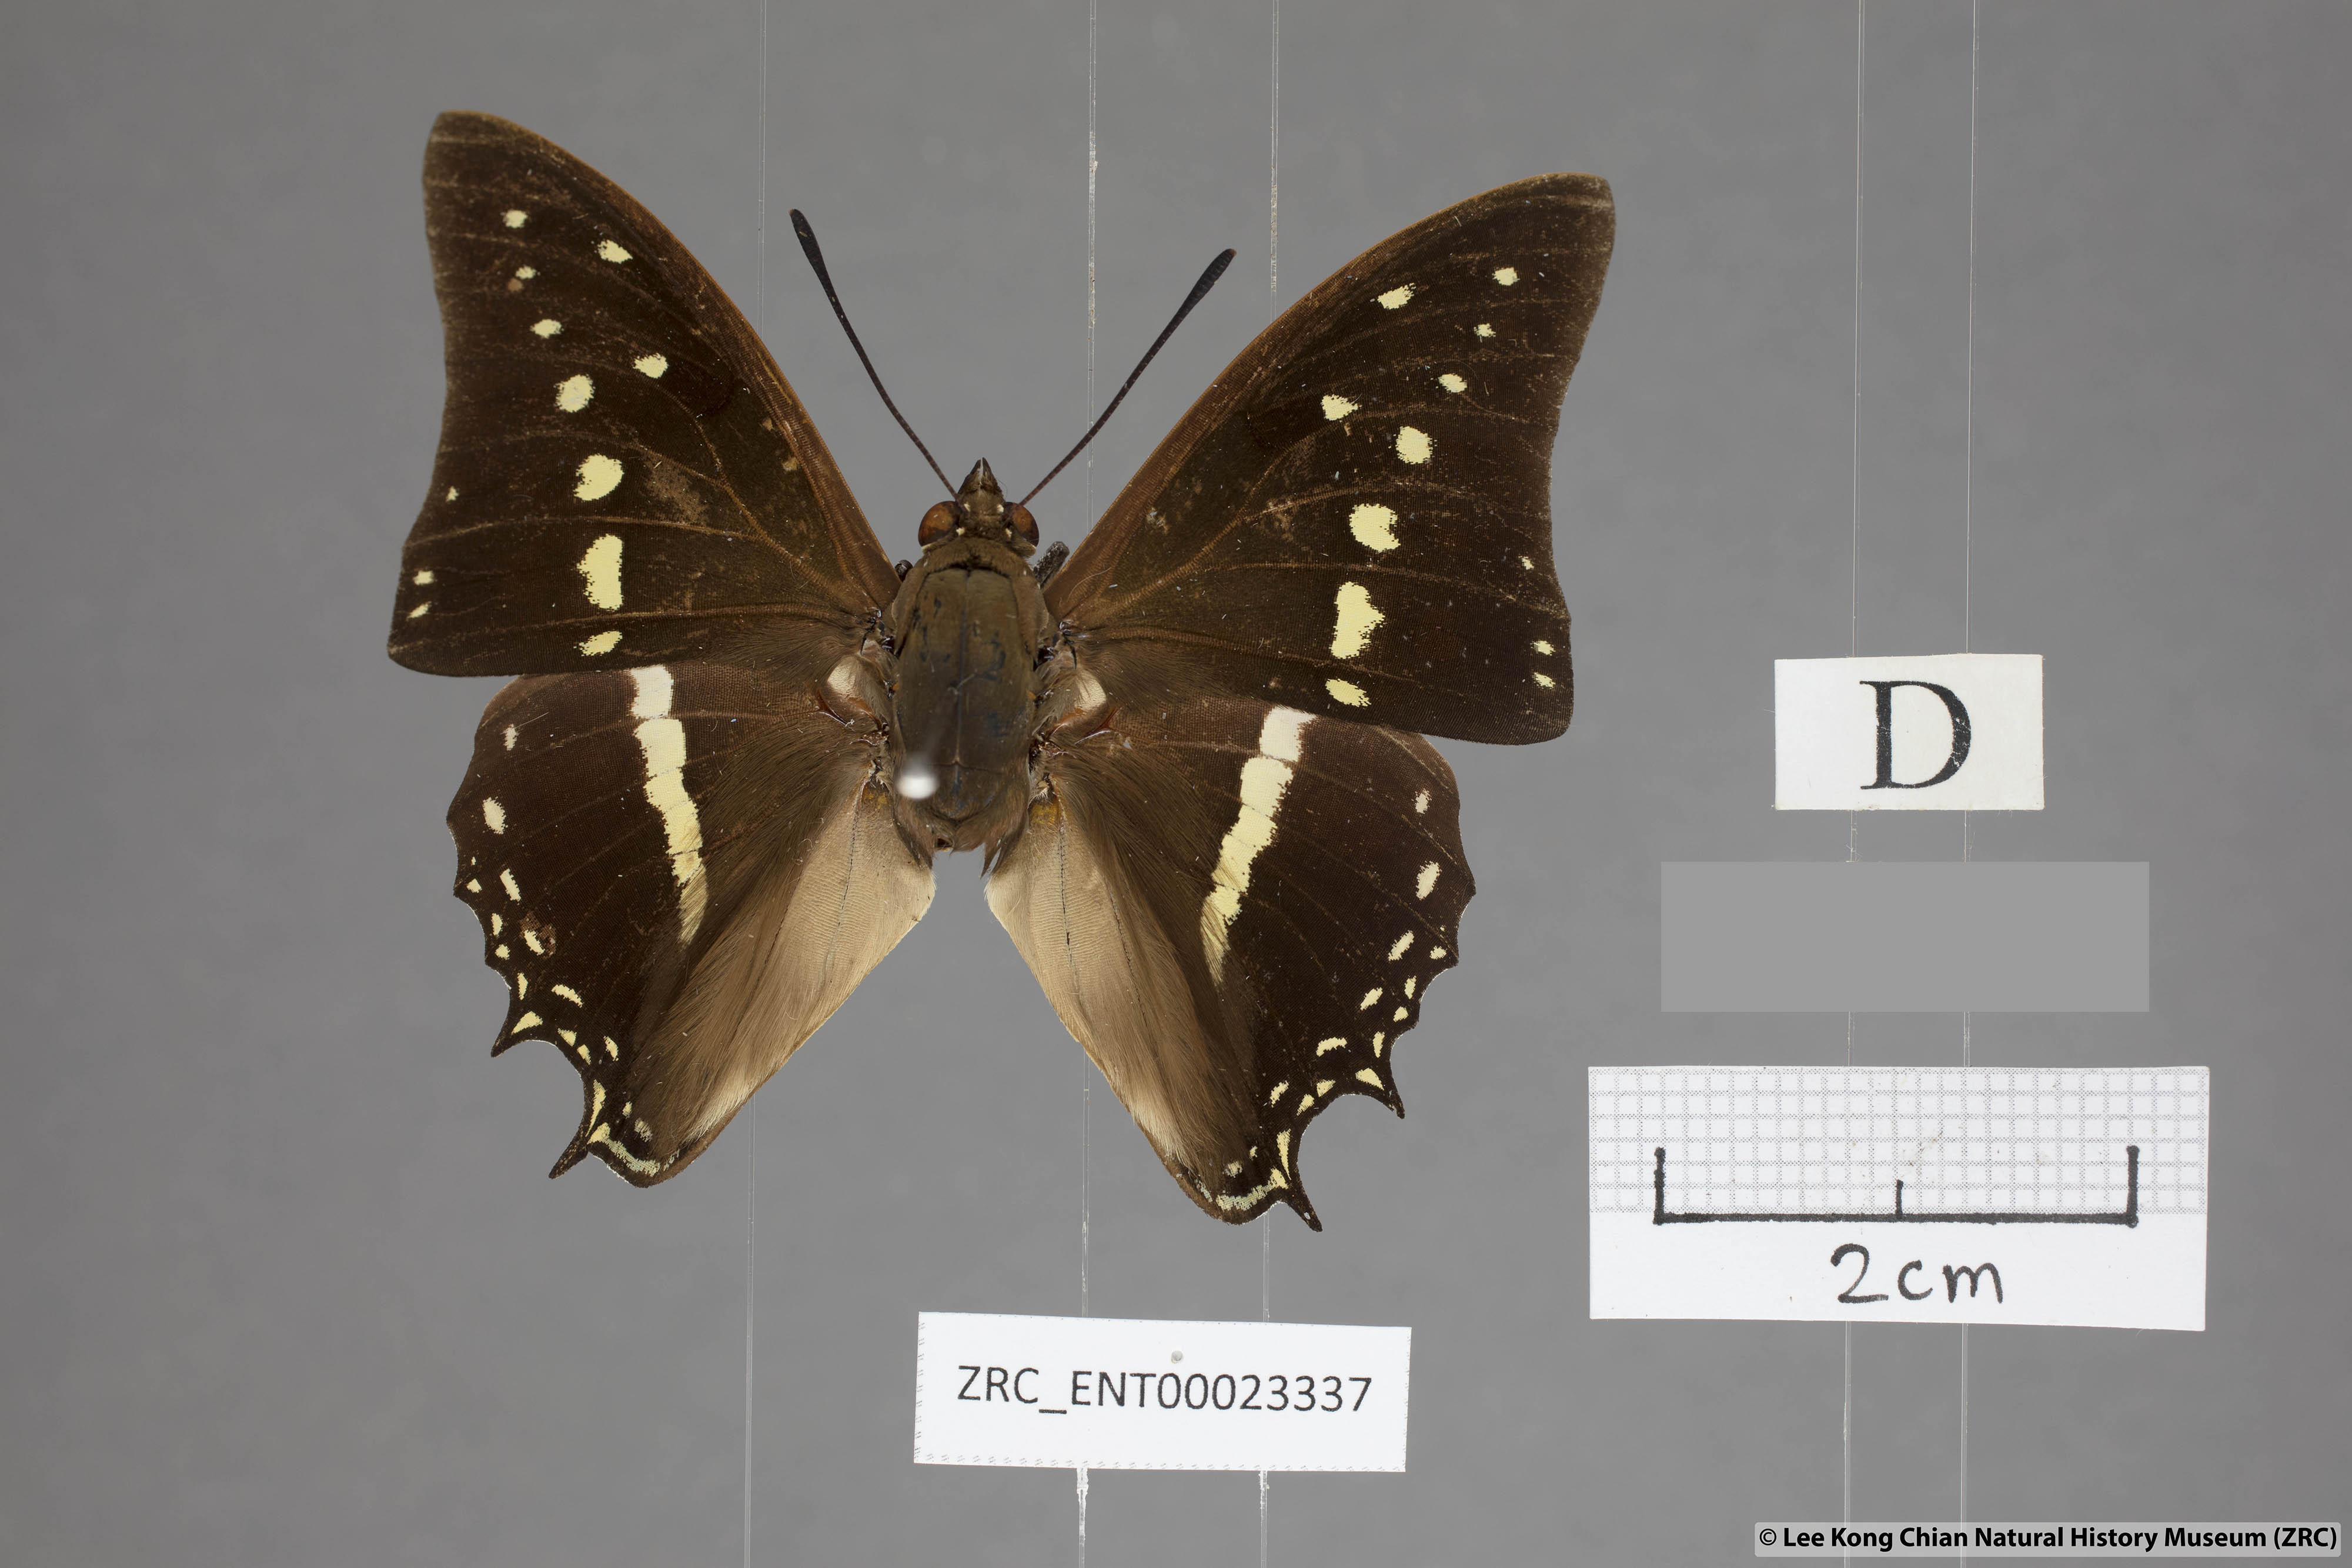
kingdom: Animalia
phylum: Arthropoda
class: Insecta
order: Lepidoptera
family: Nymphalidae
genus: Charaxes
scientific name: Charaxes solon
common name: Black rajah
